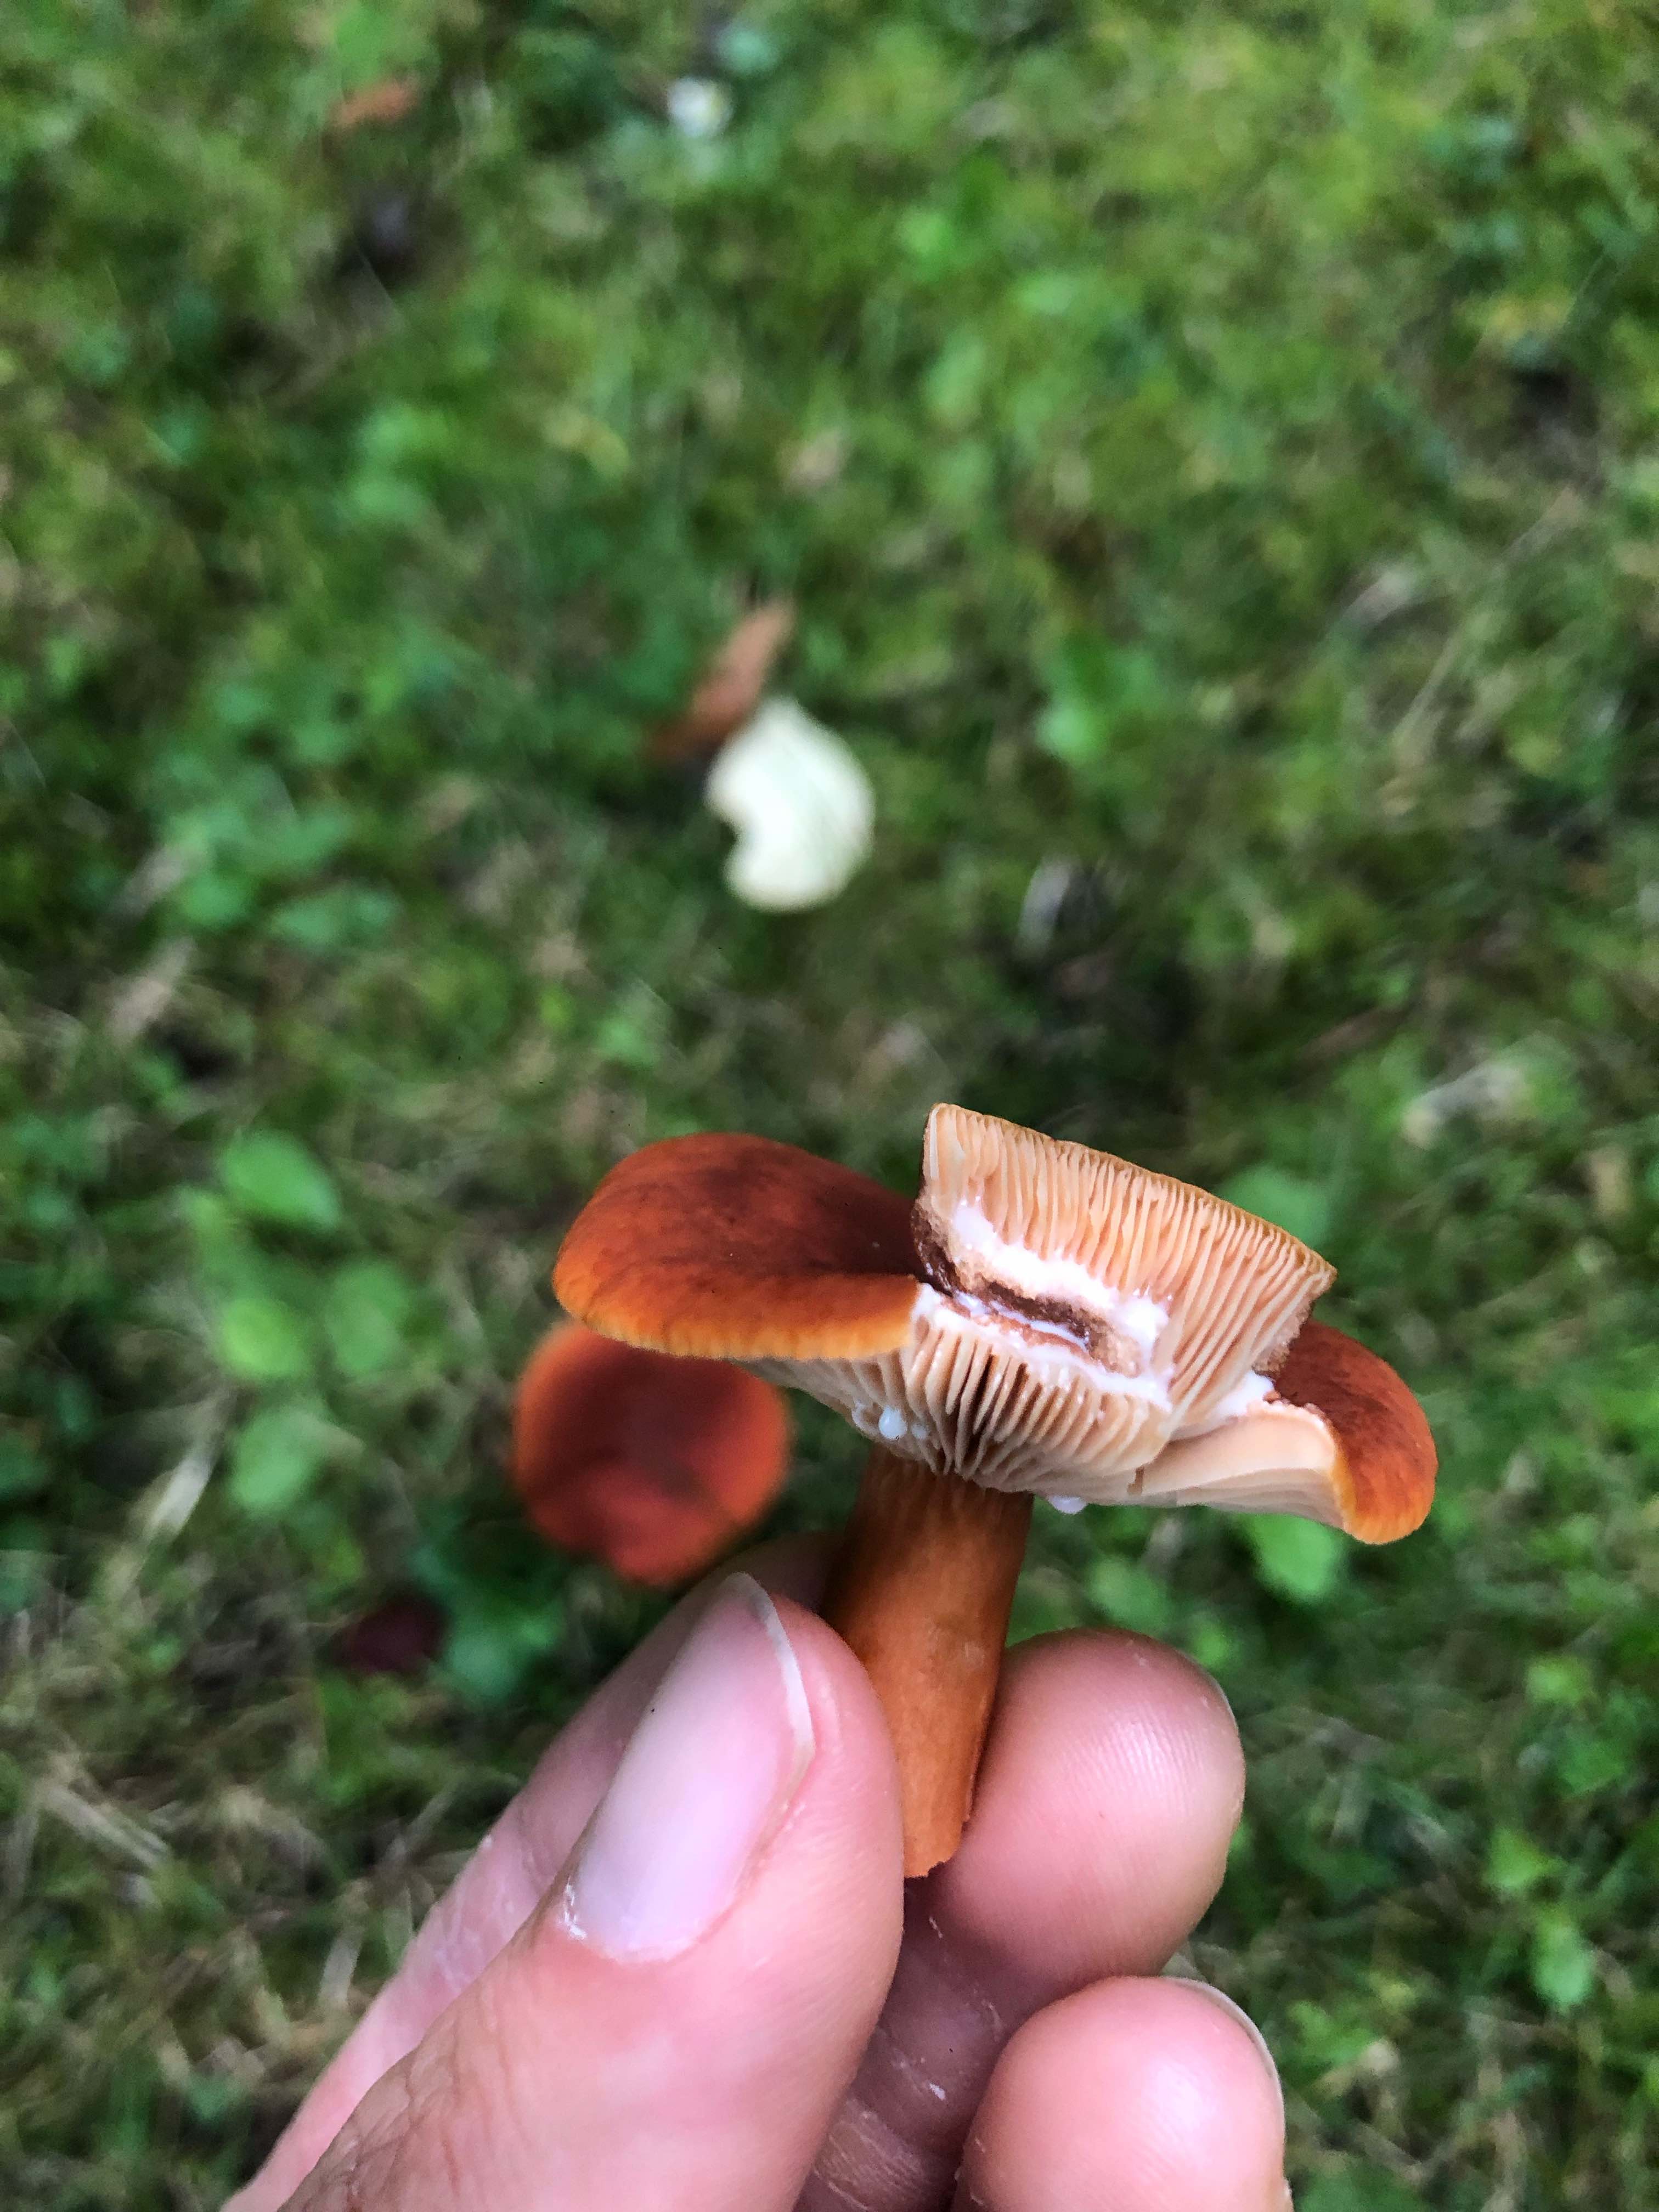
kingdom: Fungi
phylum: Basidiomycota
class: Agaricomycetes
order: Russulales
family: Russulaceae
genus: Lactarius
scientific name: Lactarius fulvissimus
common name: ræve-mælkehat
